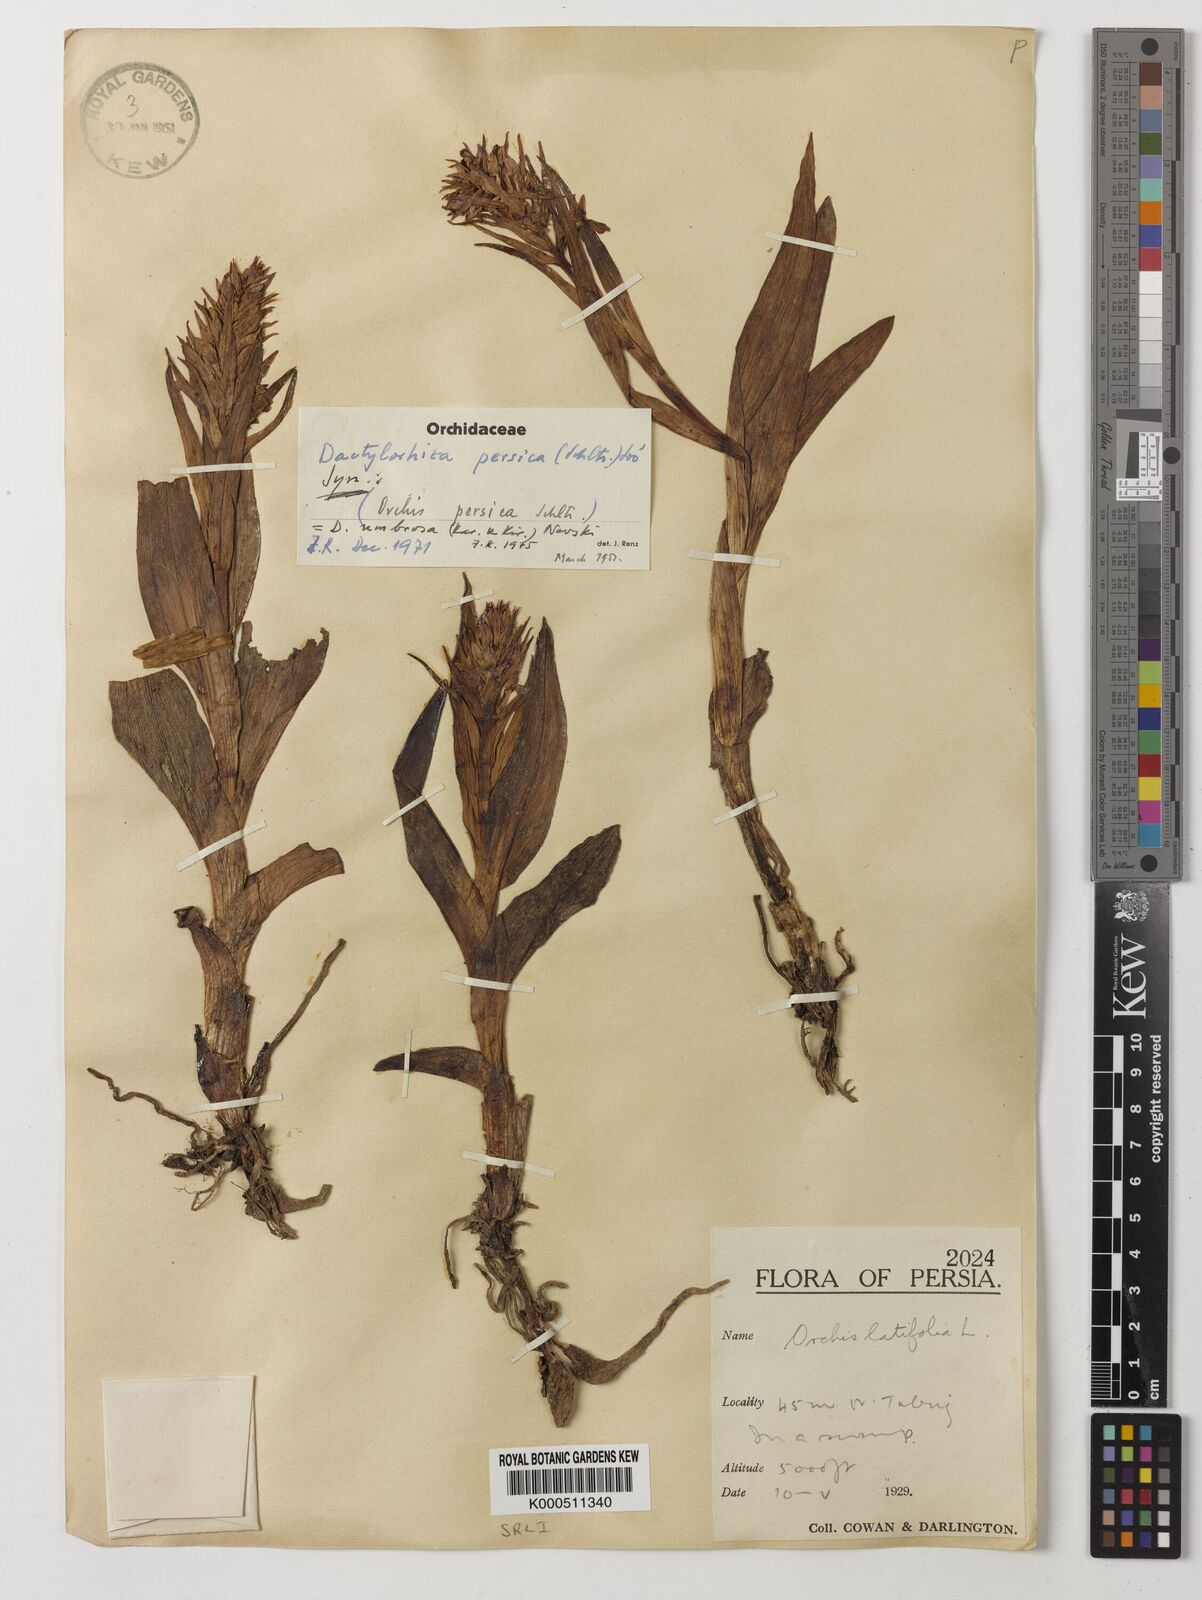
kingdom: Plantae
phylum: Tracheophyta
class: Liliopsida
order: Asparagales
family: Orchidaceae
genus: Dactylorhiza
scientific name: Dactylorhiza
